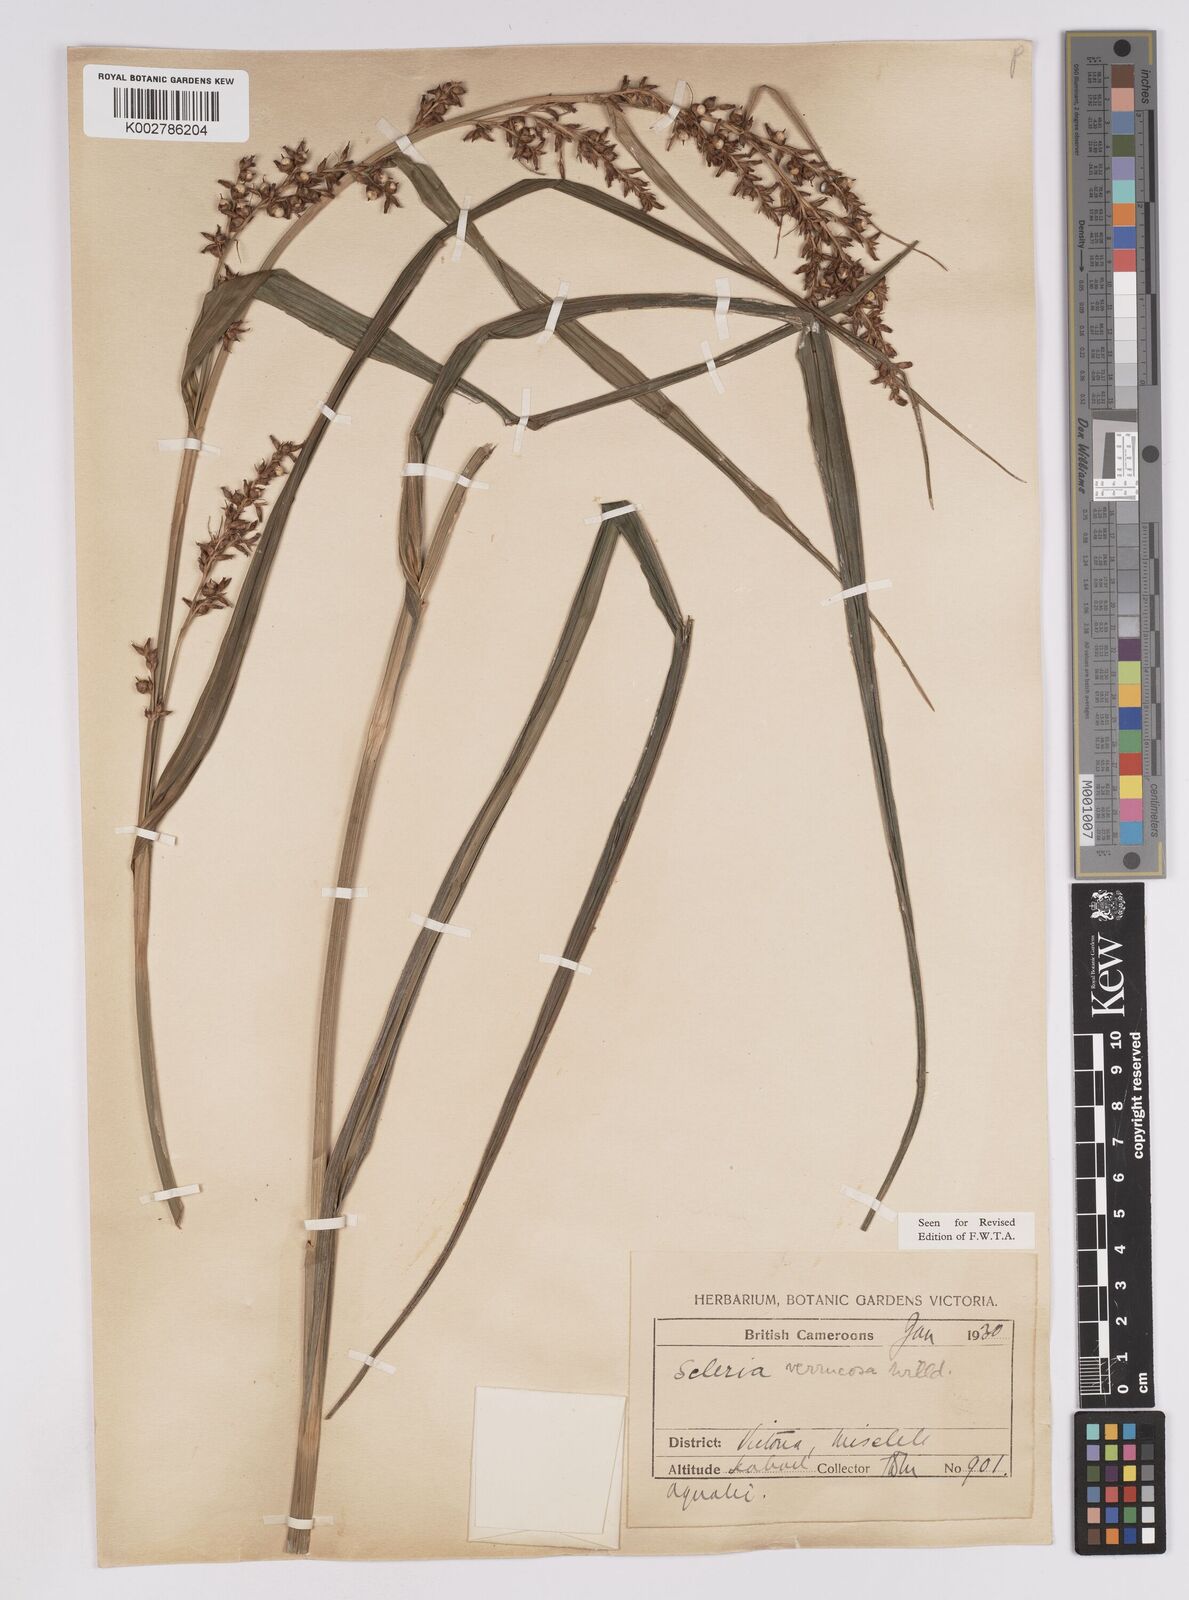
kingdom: Plantae
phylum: Tracheophyta
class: Liliopsida
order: Poales
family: Cyperaceae
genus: Scleria
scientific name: Scleria verrucosa
